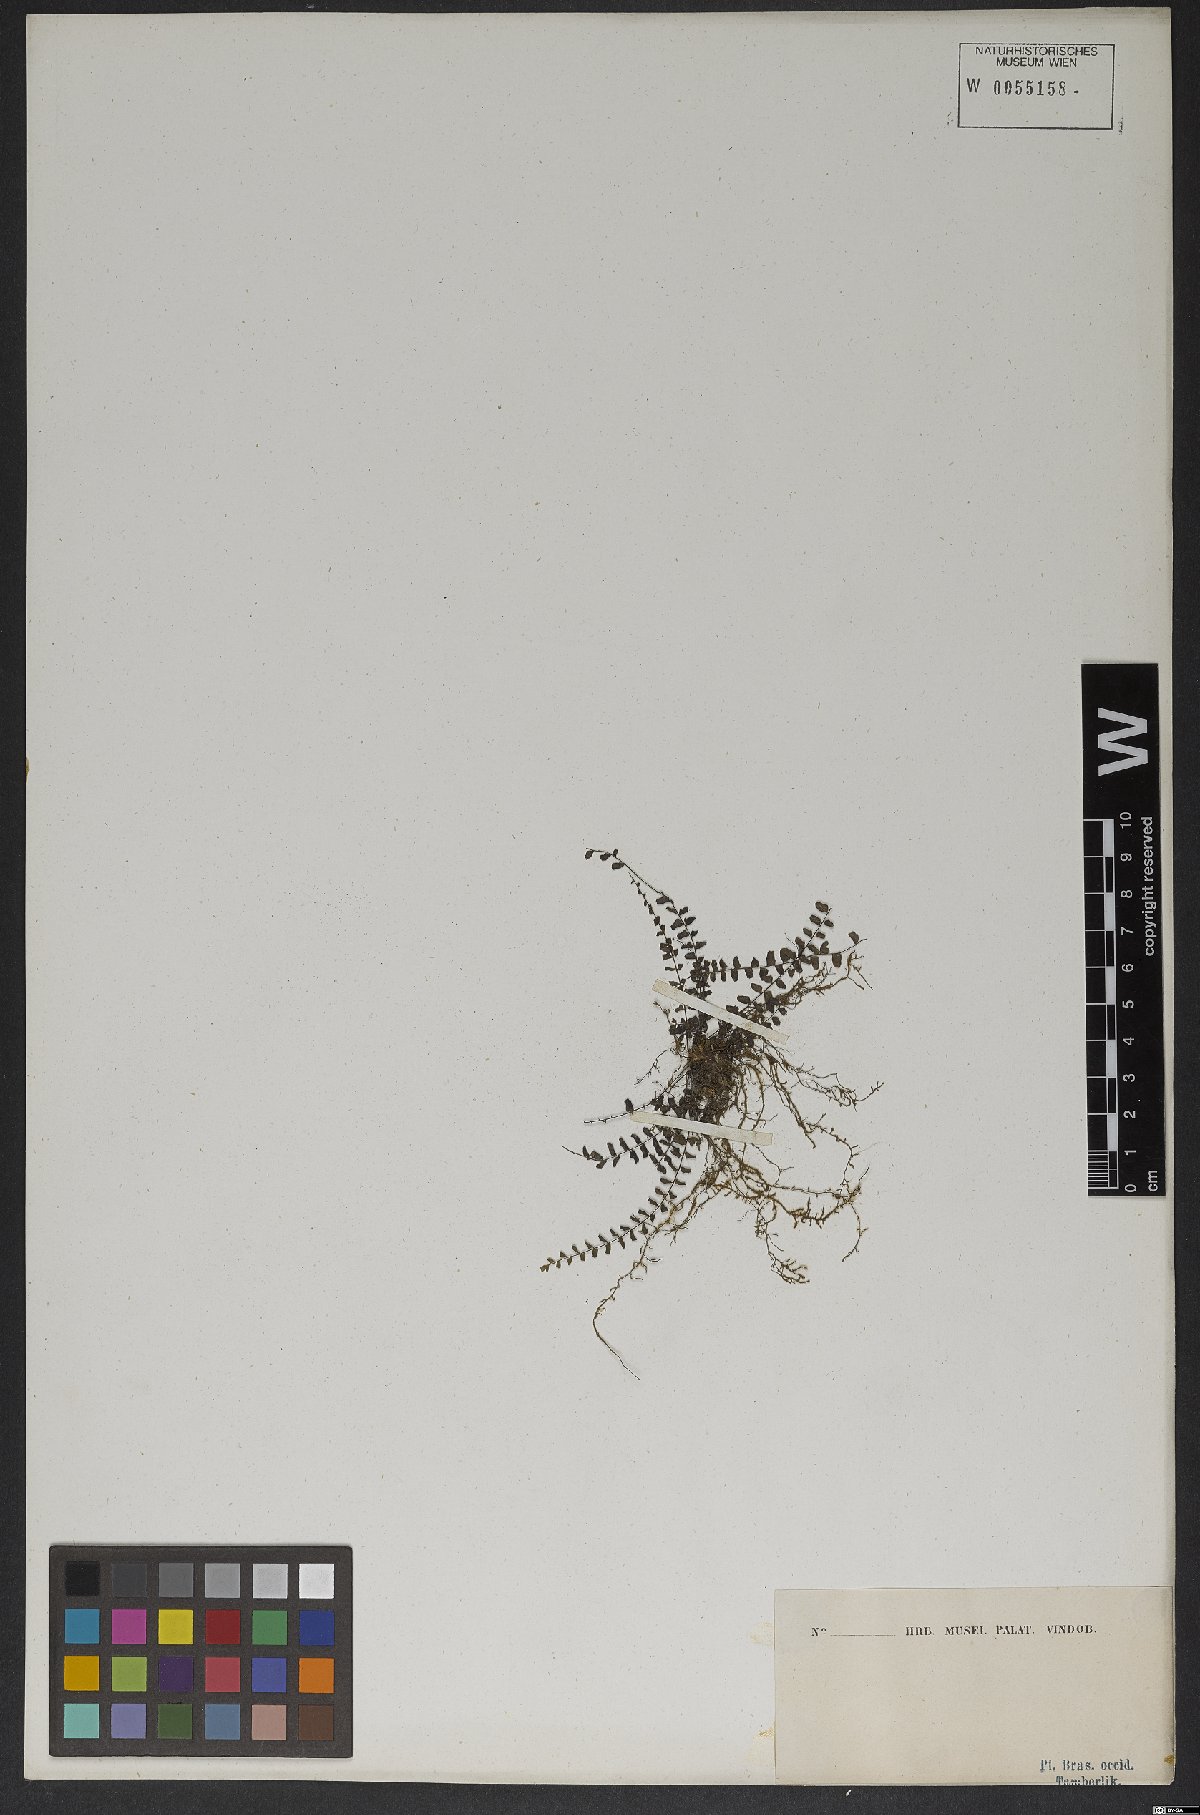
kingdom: Plantae
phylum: Tracheophyta
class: Polypodiopsida
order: Polypodiales
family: Aspleniaceae
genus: Asplenium
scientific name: Asplenium trichomanes
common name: Maidenhair spleenwort
